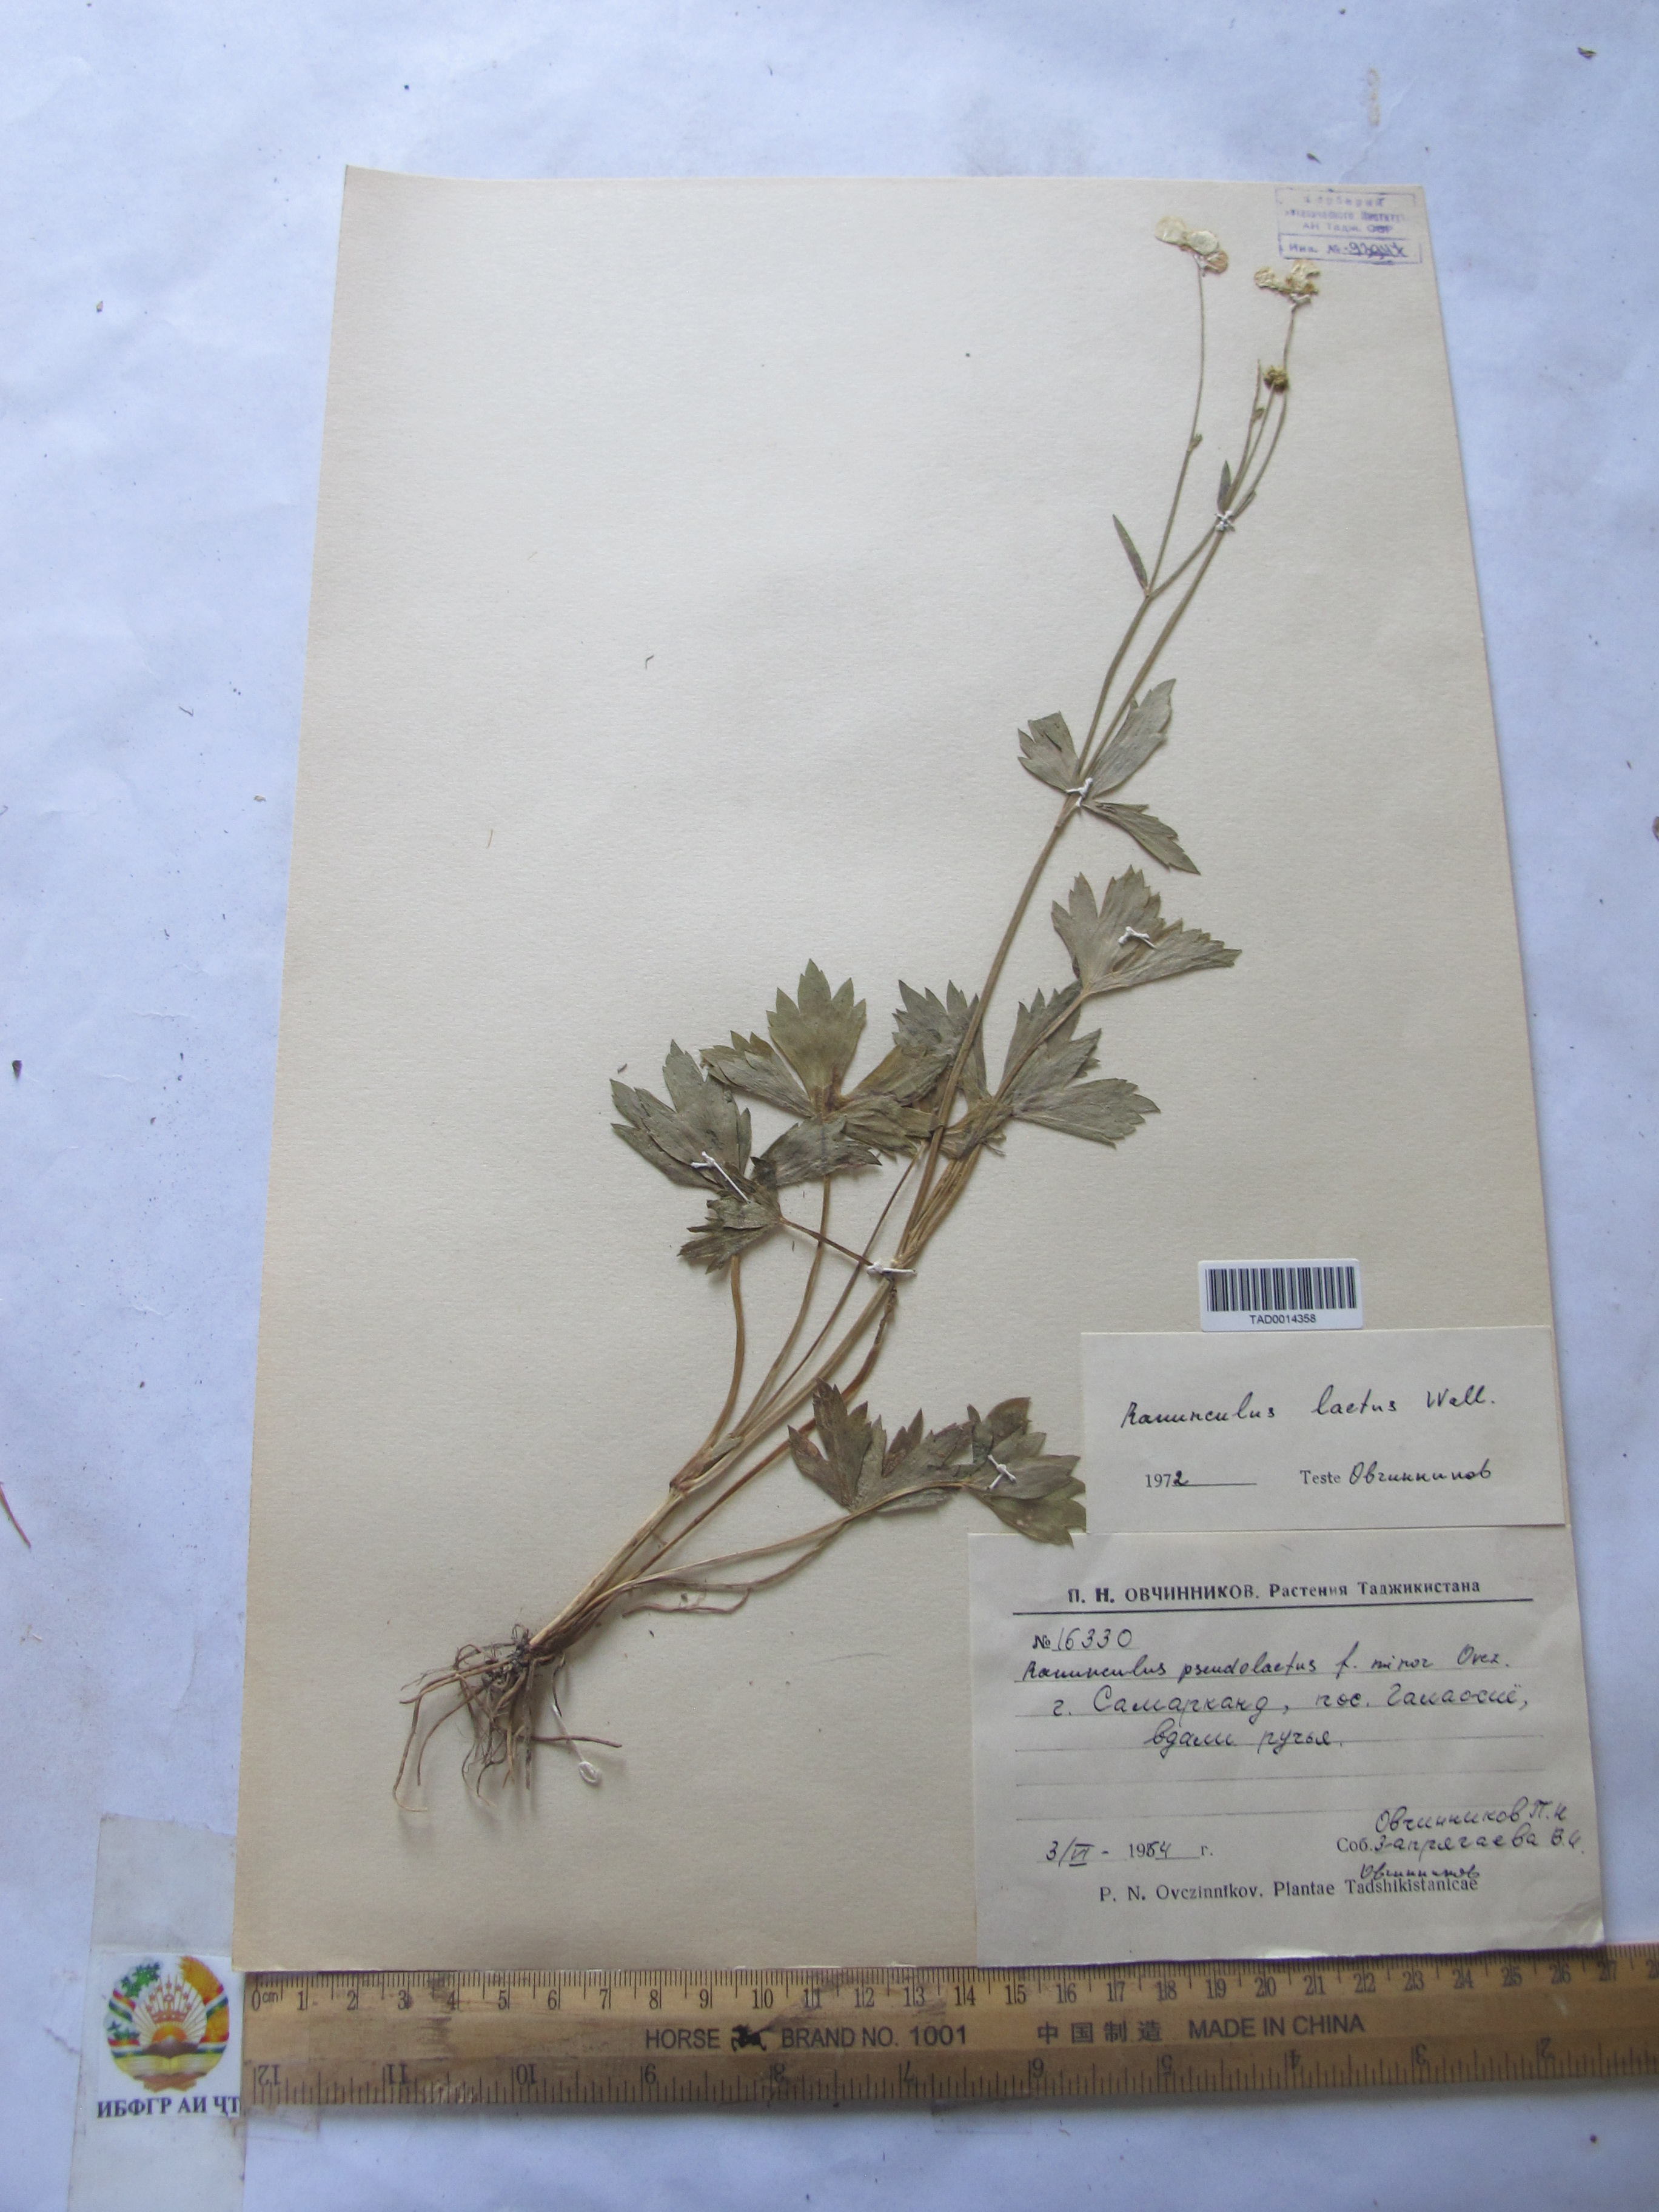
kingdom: Plantae
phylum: Tracheophyta
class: Magnoliopsida
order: Ranunculales
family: Ranunculaceae
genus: Ranunculus
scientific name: Ranunculus distans
